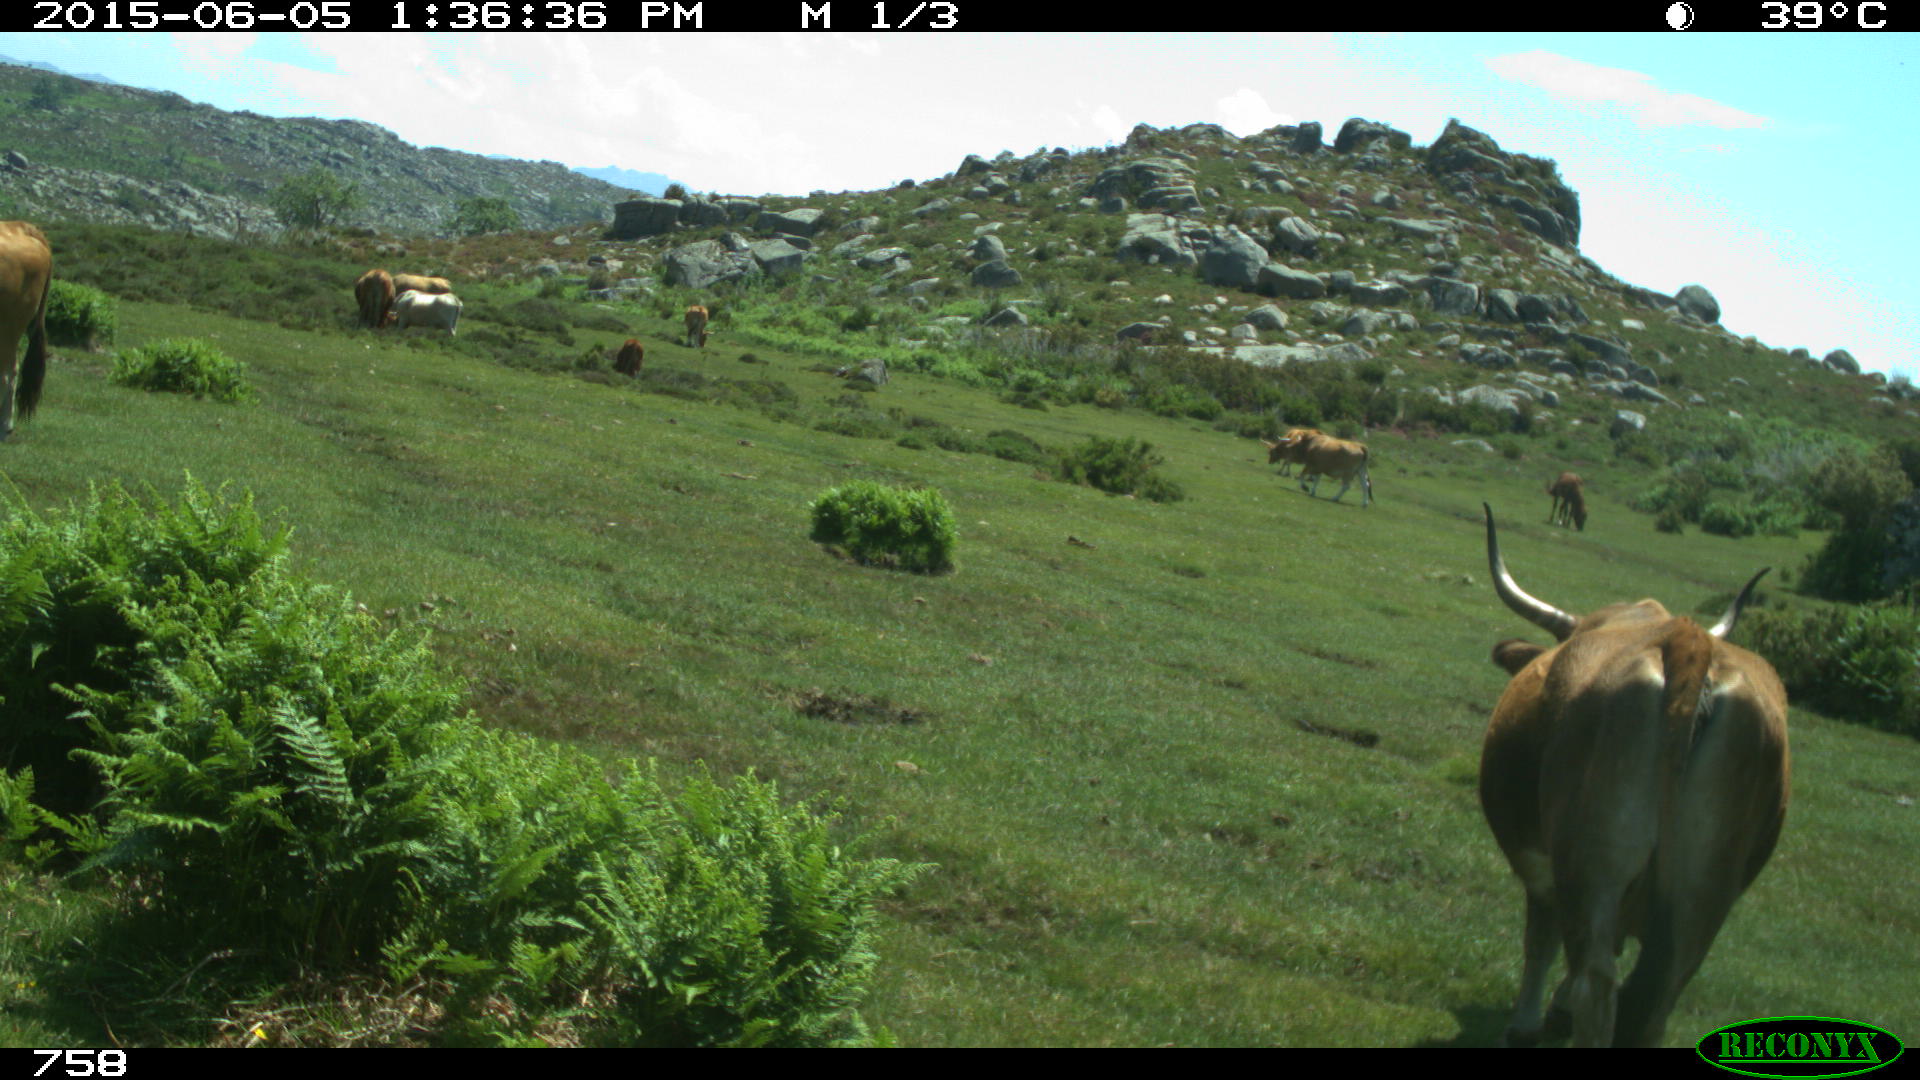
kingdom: Animalia
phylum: Chordata
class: Mammalia
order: Artiodactyla
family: Bovidae
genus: Bos
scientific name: Bos taurus
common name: Domesticated cattle
